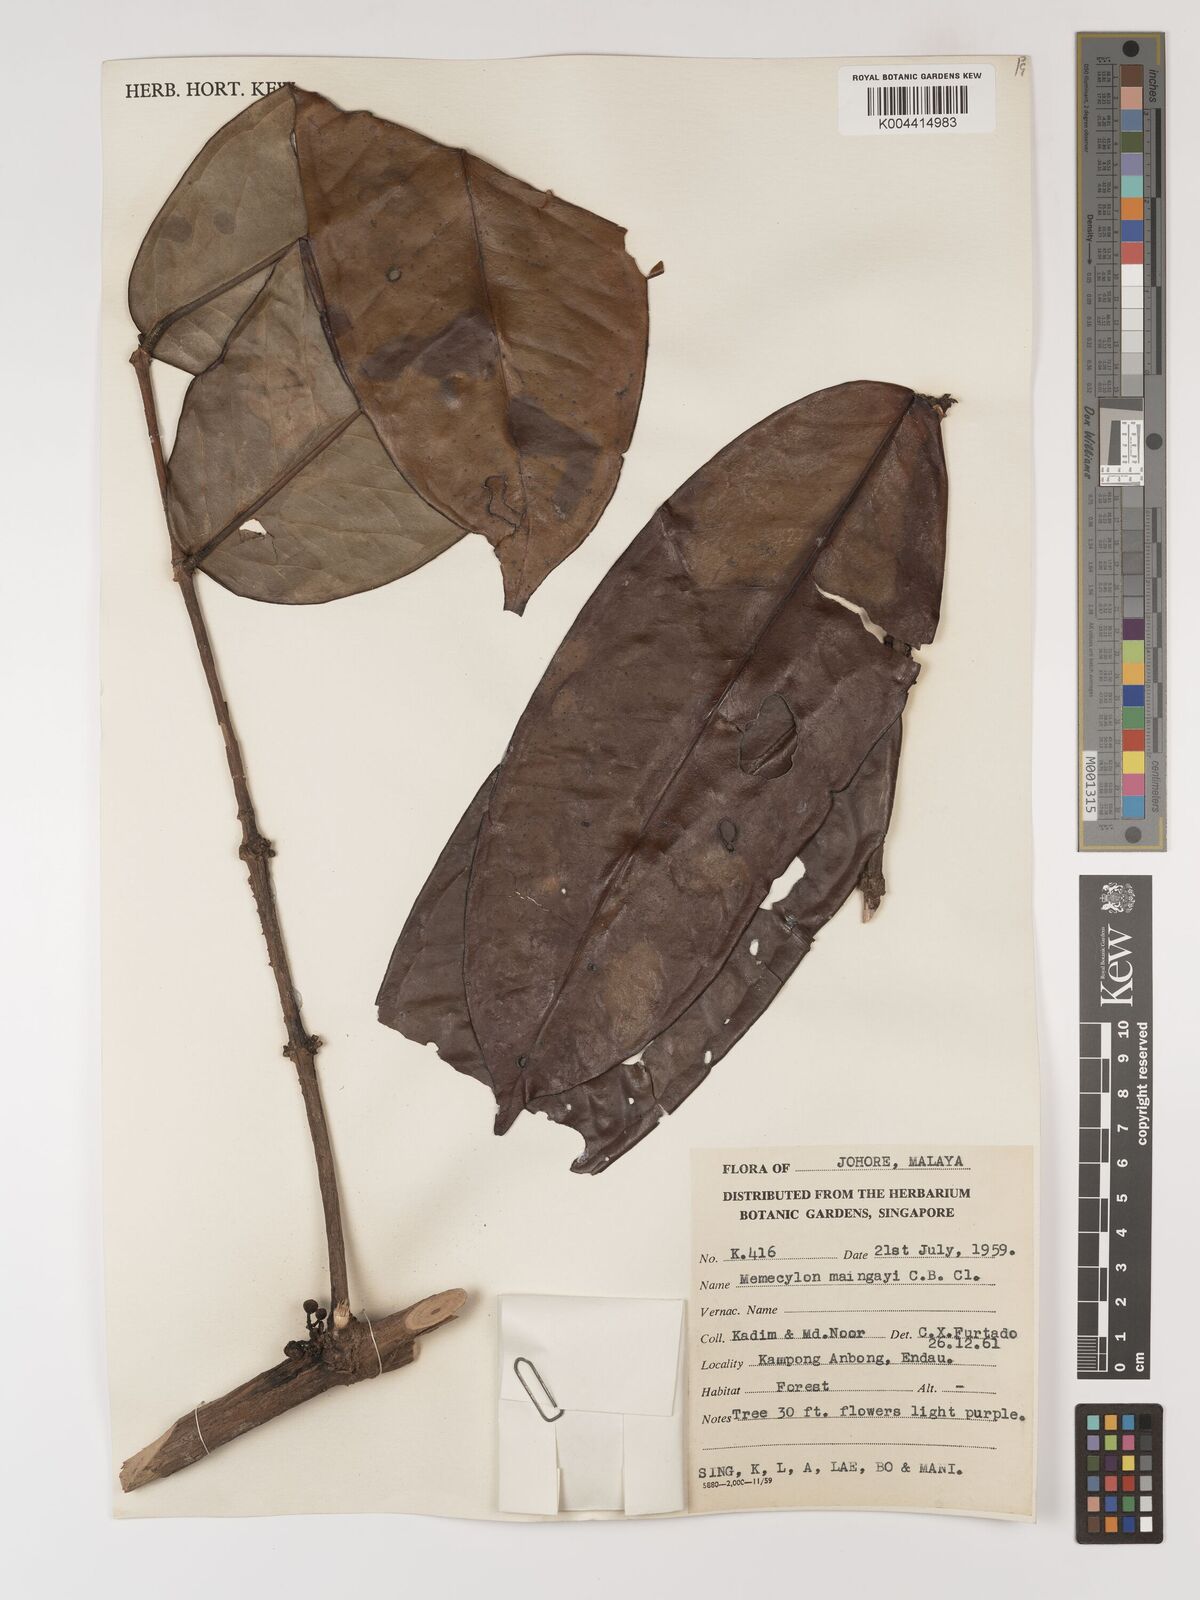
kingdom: Plantae
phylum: Tracheophyta
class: Magnoliopsida
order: Myrtales
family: Melastomataceae
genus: Memecylon
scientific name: Memecylon excelsum
